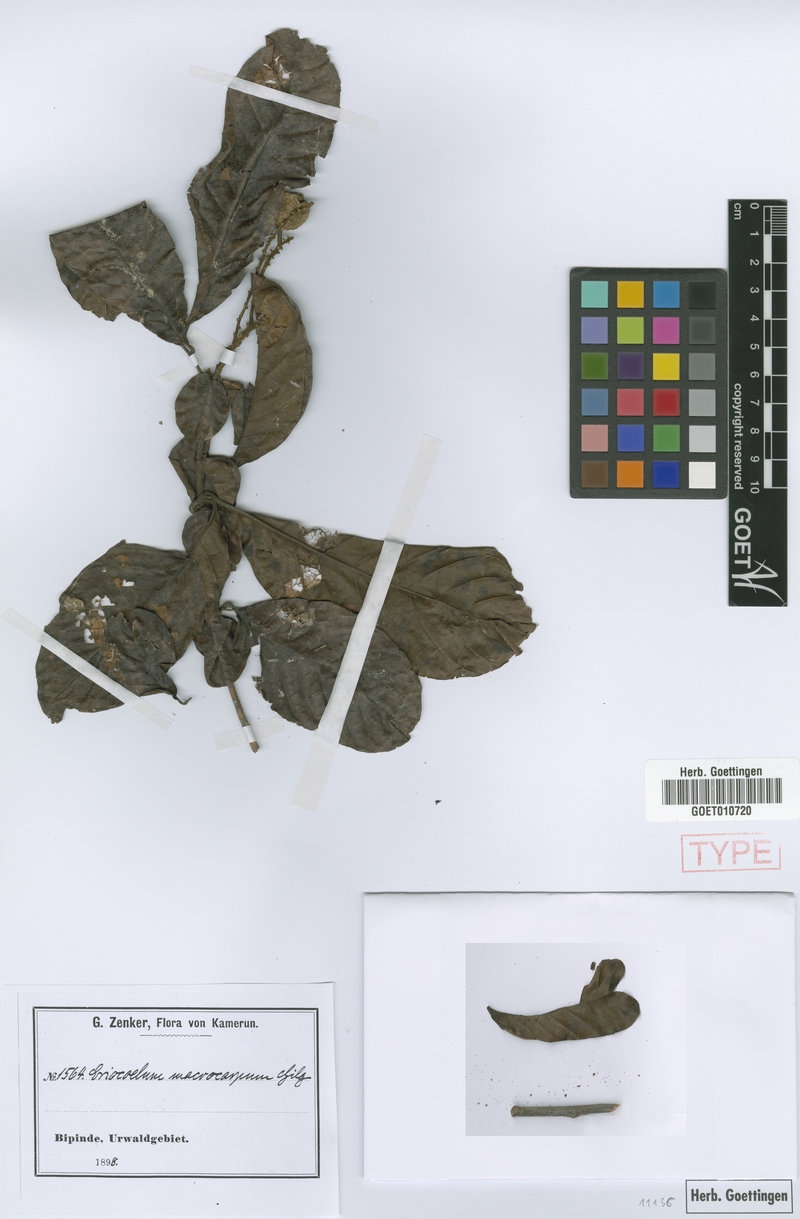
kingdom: Plantae
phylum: Tracheophyta
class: Magnoliopsida
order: Sapindales
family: Sapindaceae
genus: Eriocoelum
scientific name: Eriocoelum macrocarpum
